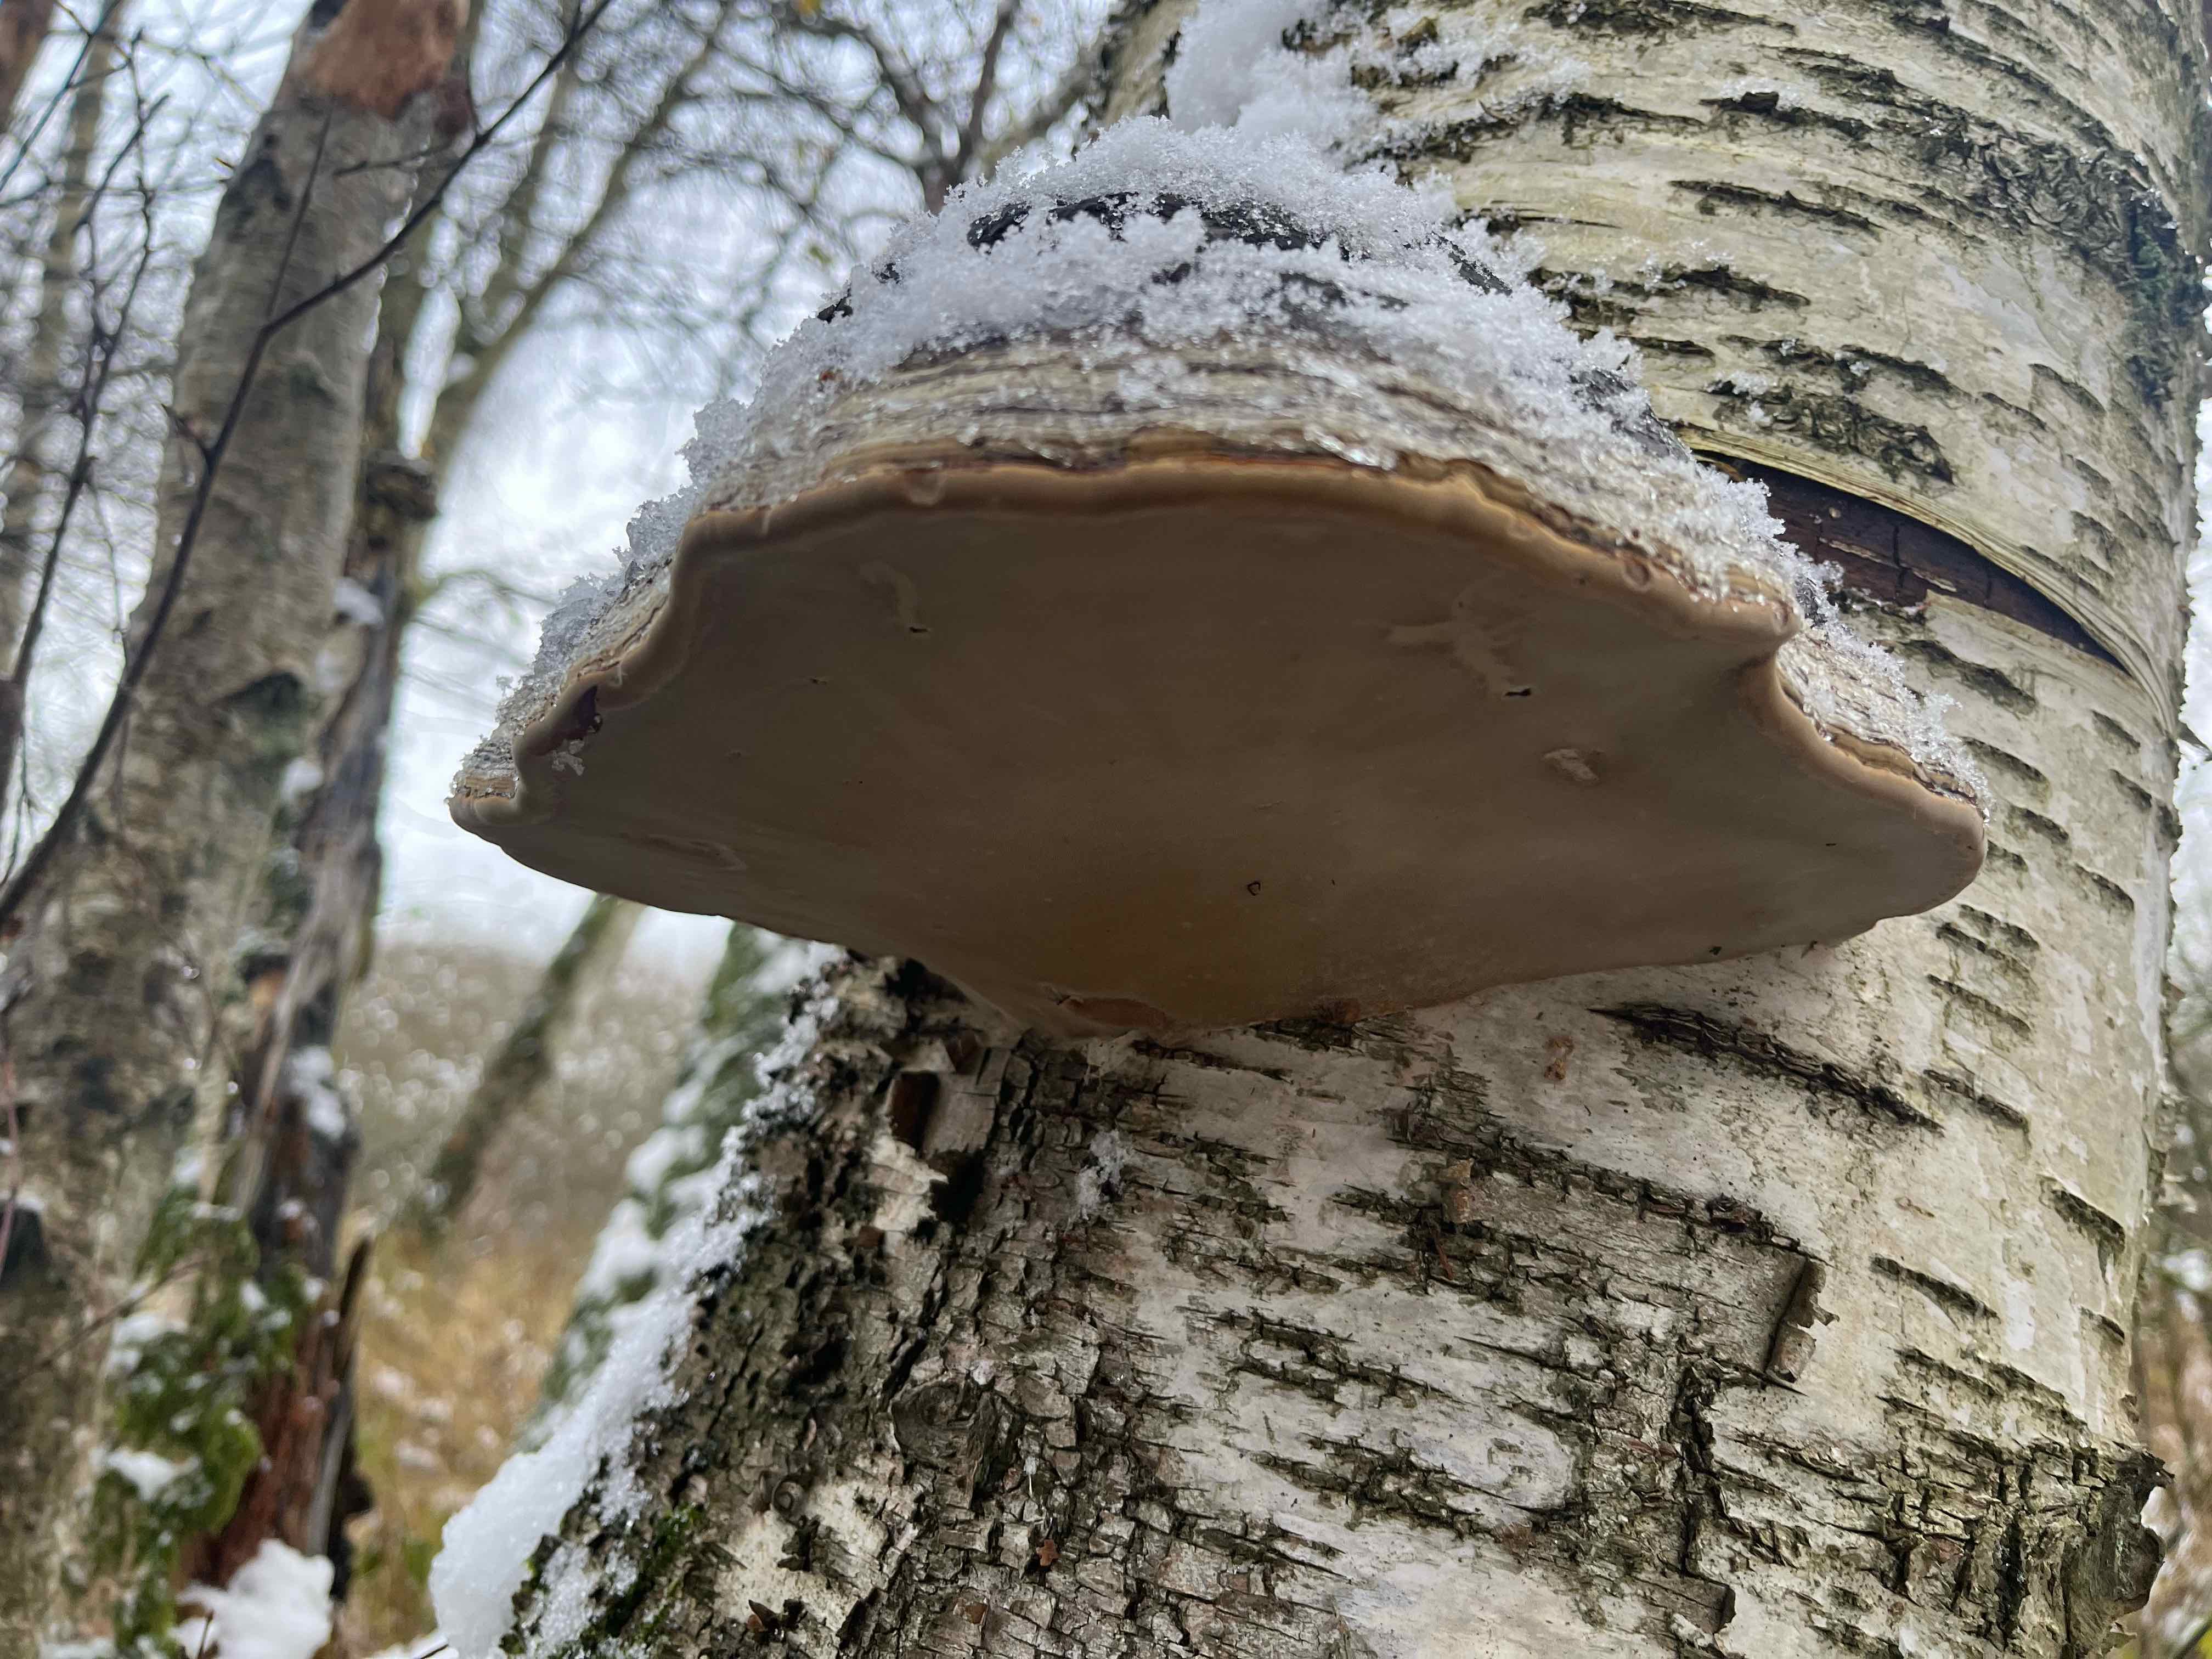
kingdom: Fungi
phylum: Basidiomycota
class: Agaricomycetes
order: Polyporales
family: Polyporaceae
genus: Fomes
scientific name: Fomes fomentarius
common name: tøndersvamp
